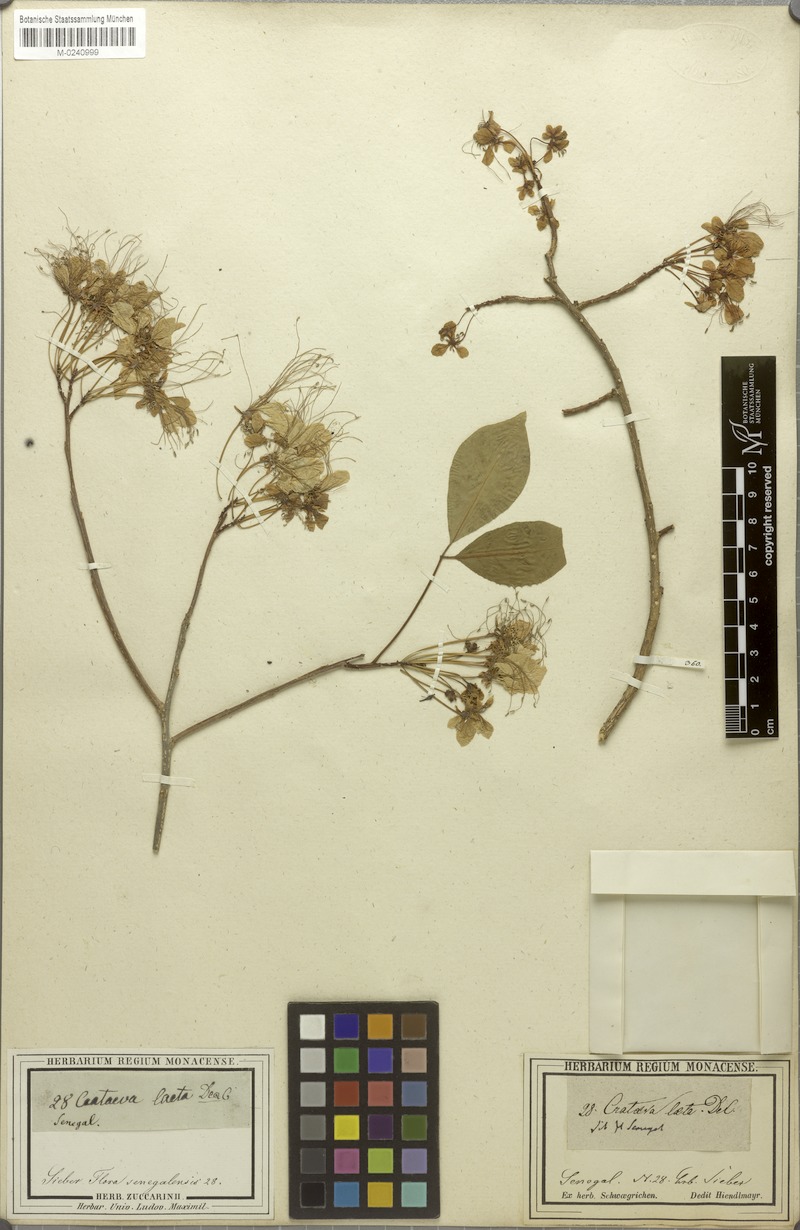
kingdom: Plantae
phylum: Tracheophyta
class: Magnoliopsida
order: Brassicales
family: Capparaceae
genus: Crateva
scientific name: Crateva adansonii
